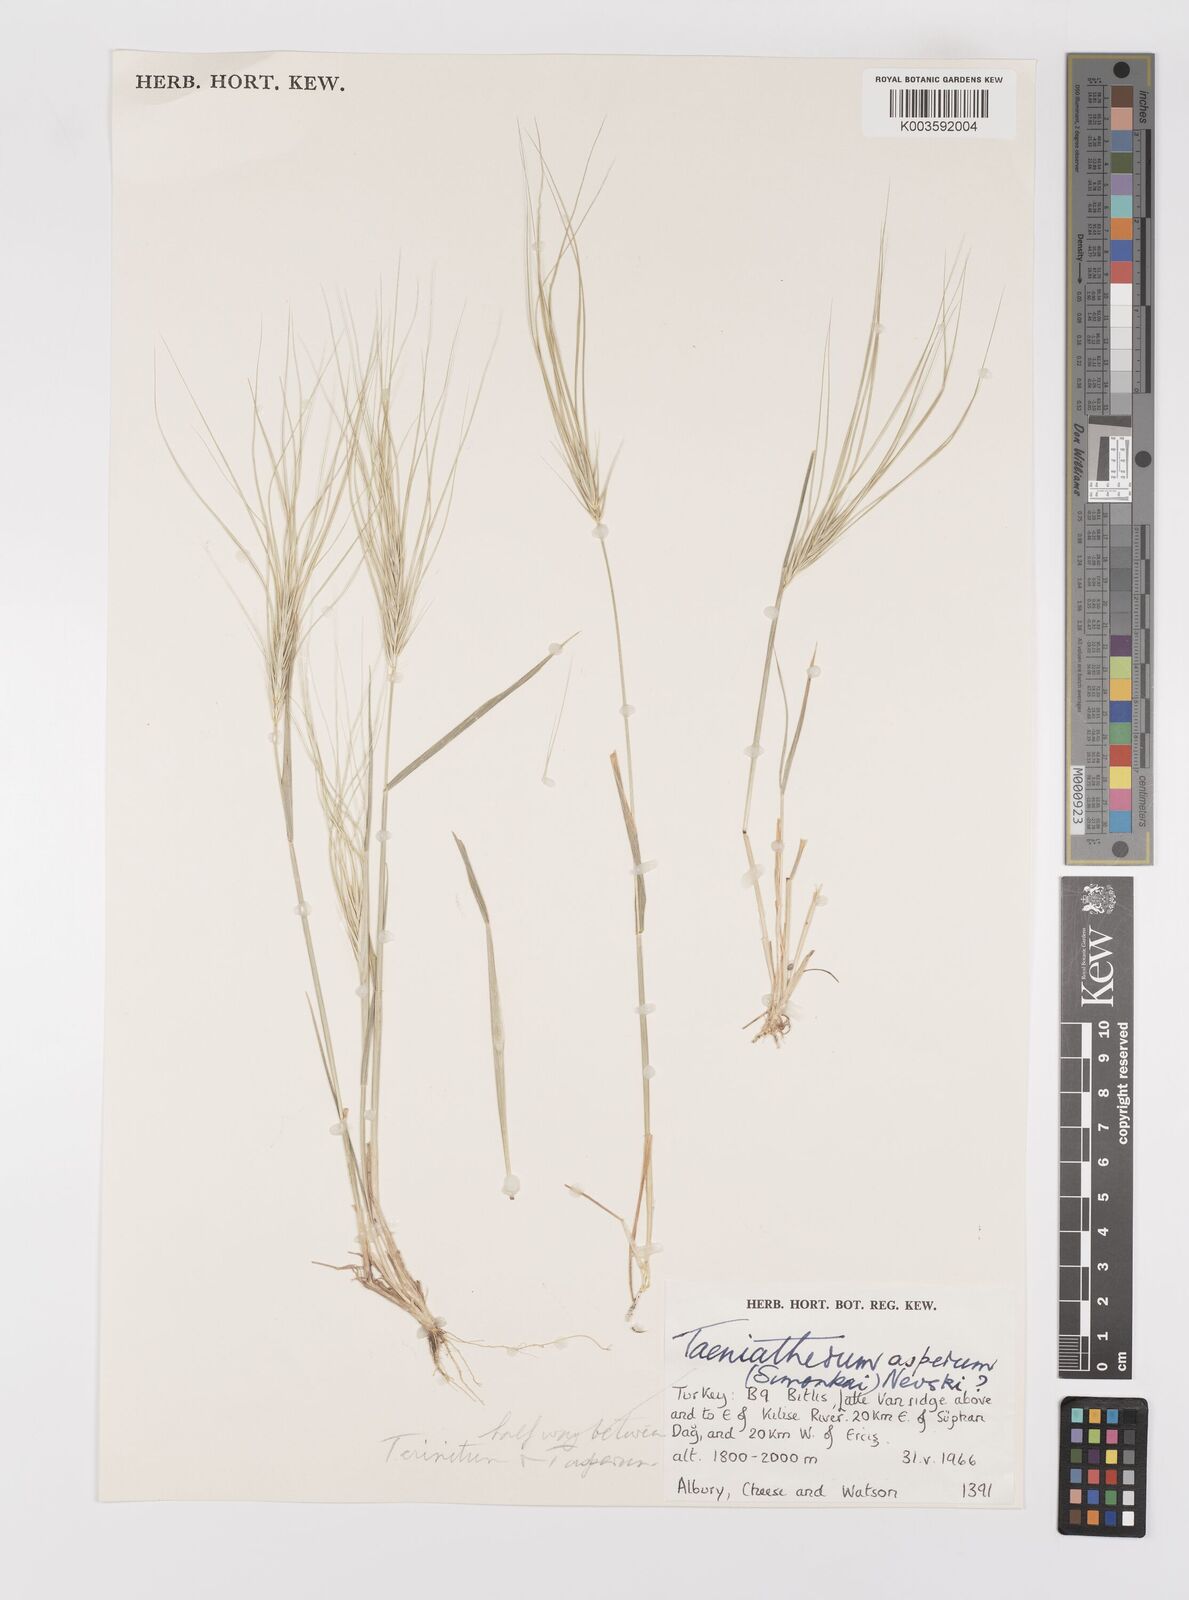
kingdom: Plantae
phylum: Tracheophyta
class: Liliopsida
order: Poales
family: Poaceae
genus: Taeniatherum
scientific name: Taeniatherum caput-medusae
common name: Medusahead
